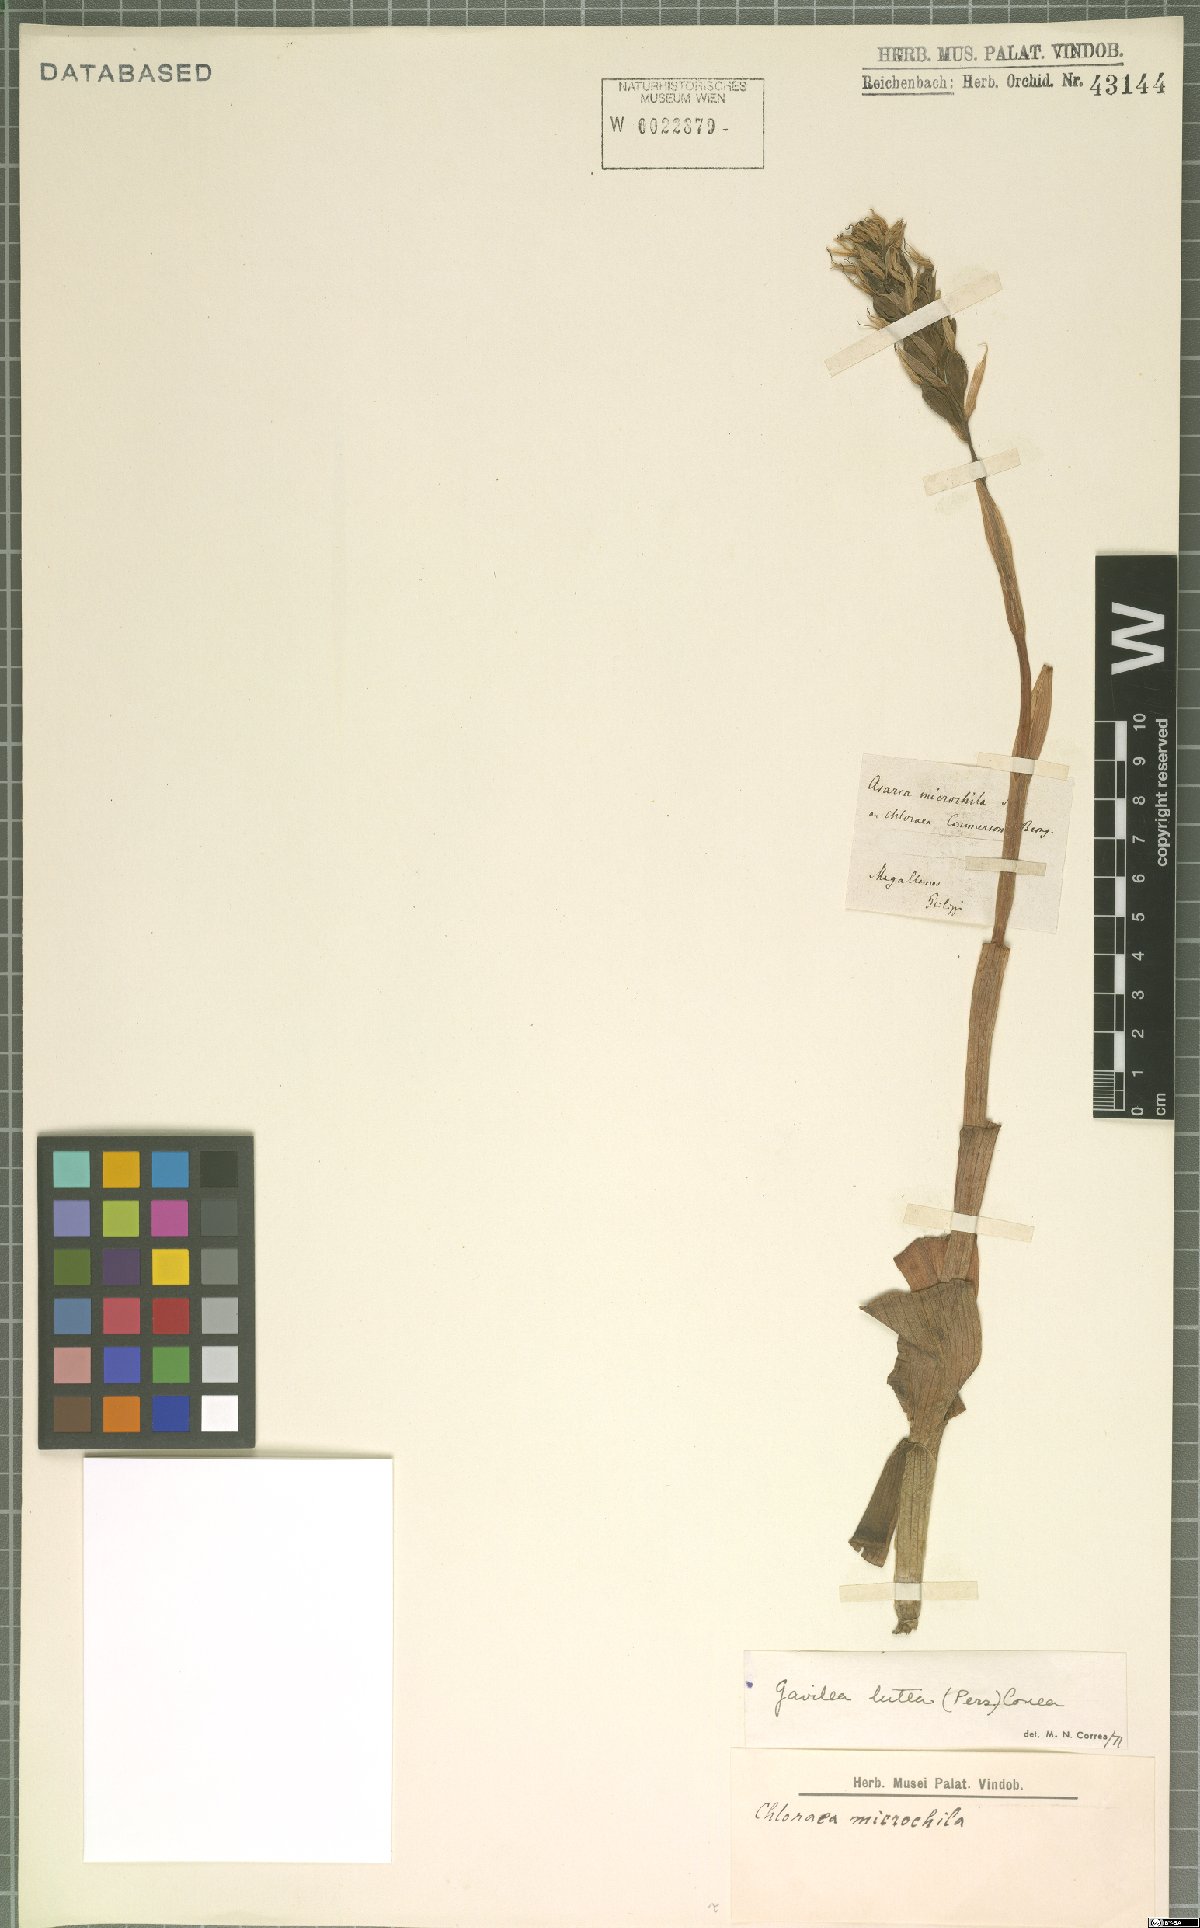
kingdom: Plantae
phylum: Tracheophyta
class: Liliopsida
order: Asparagales
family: Orchidaceae
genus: Gavilea
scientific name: Gavilea lutea
